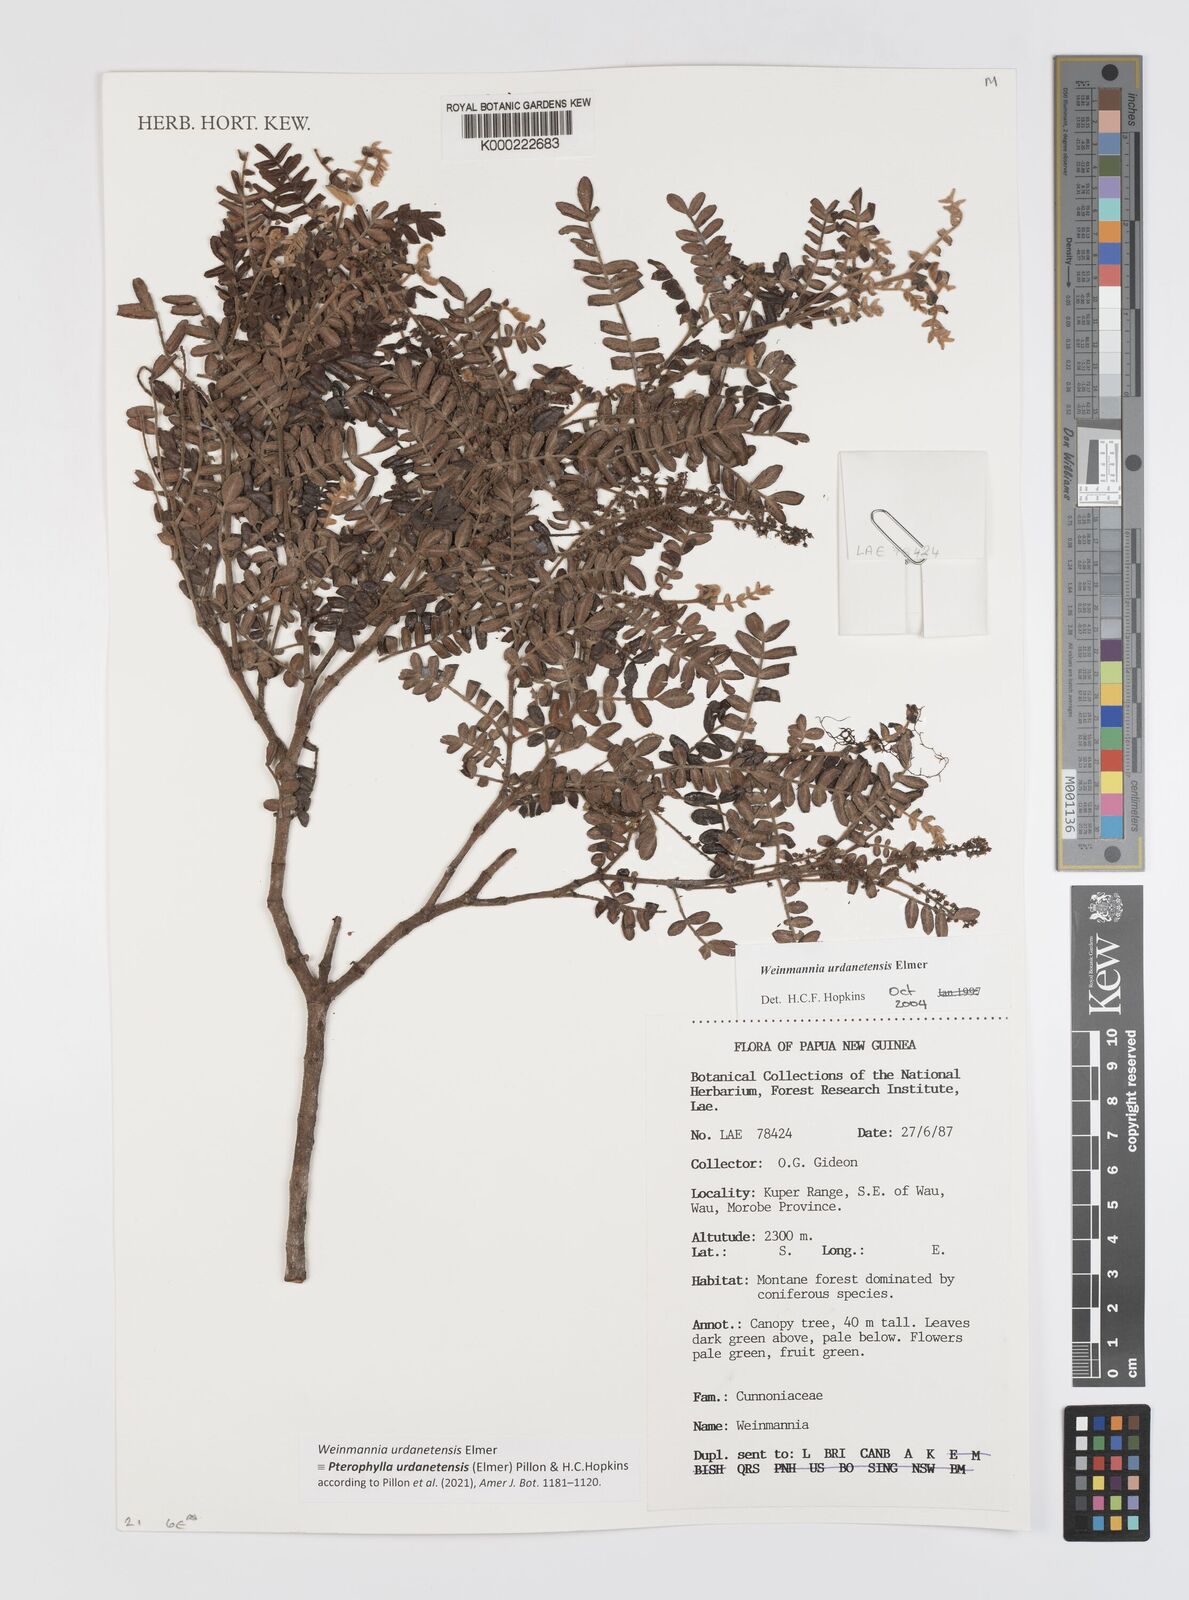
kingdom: Plantae
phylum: Tracheophyta
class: Magnoliopsida
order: Oxalidales
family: Cunoniaceae
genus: Pterophylla
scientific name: Pterophylla urdanetensis
